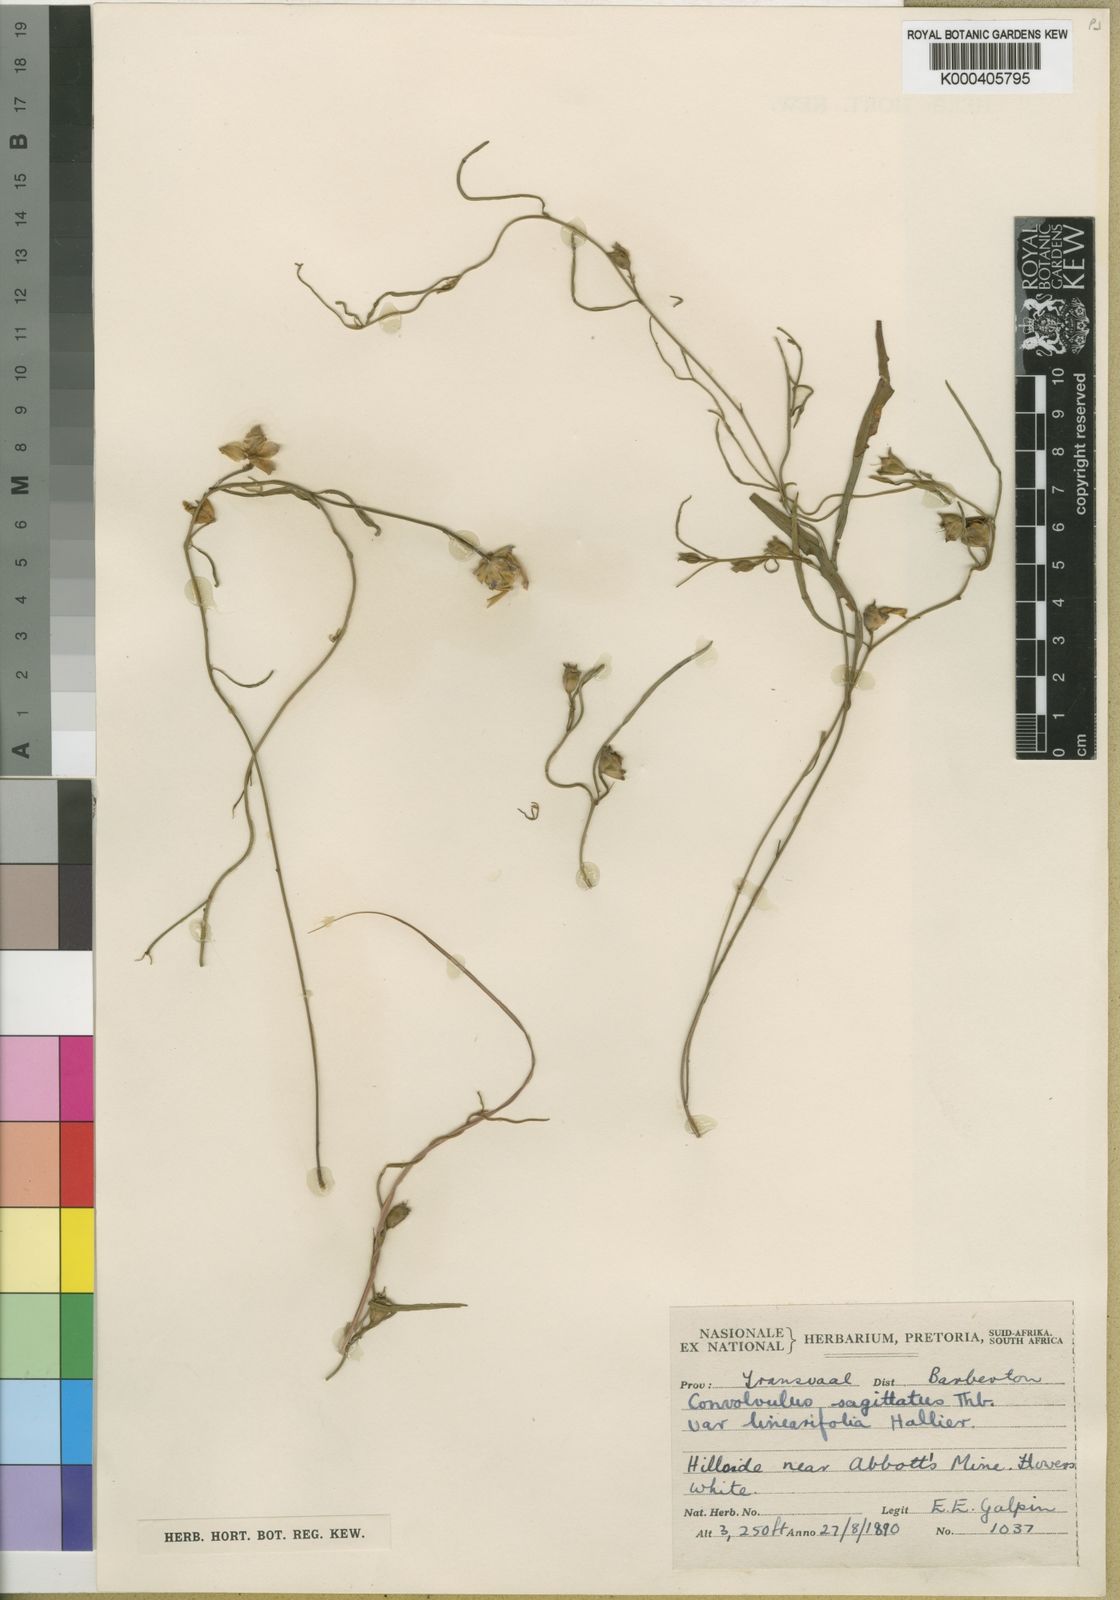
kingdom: Plantae
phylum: Tracheophyta
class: Magnoliopsida
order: Solanales
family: Convolvulaceae
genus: Convolvulus
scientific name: Convolvulus sagittatus
